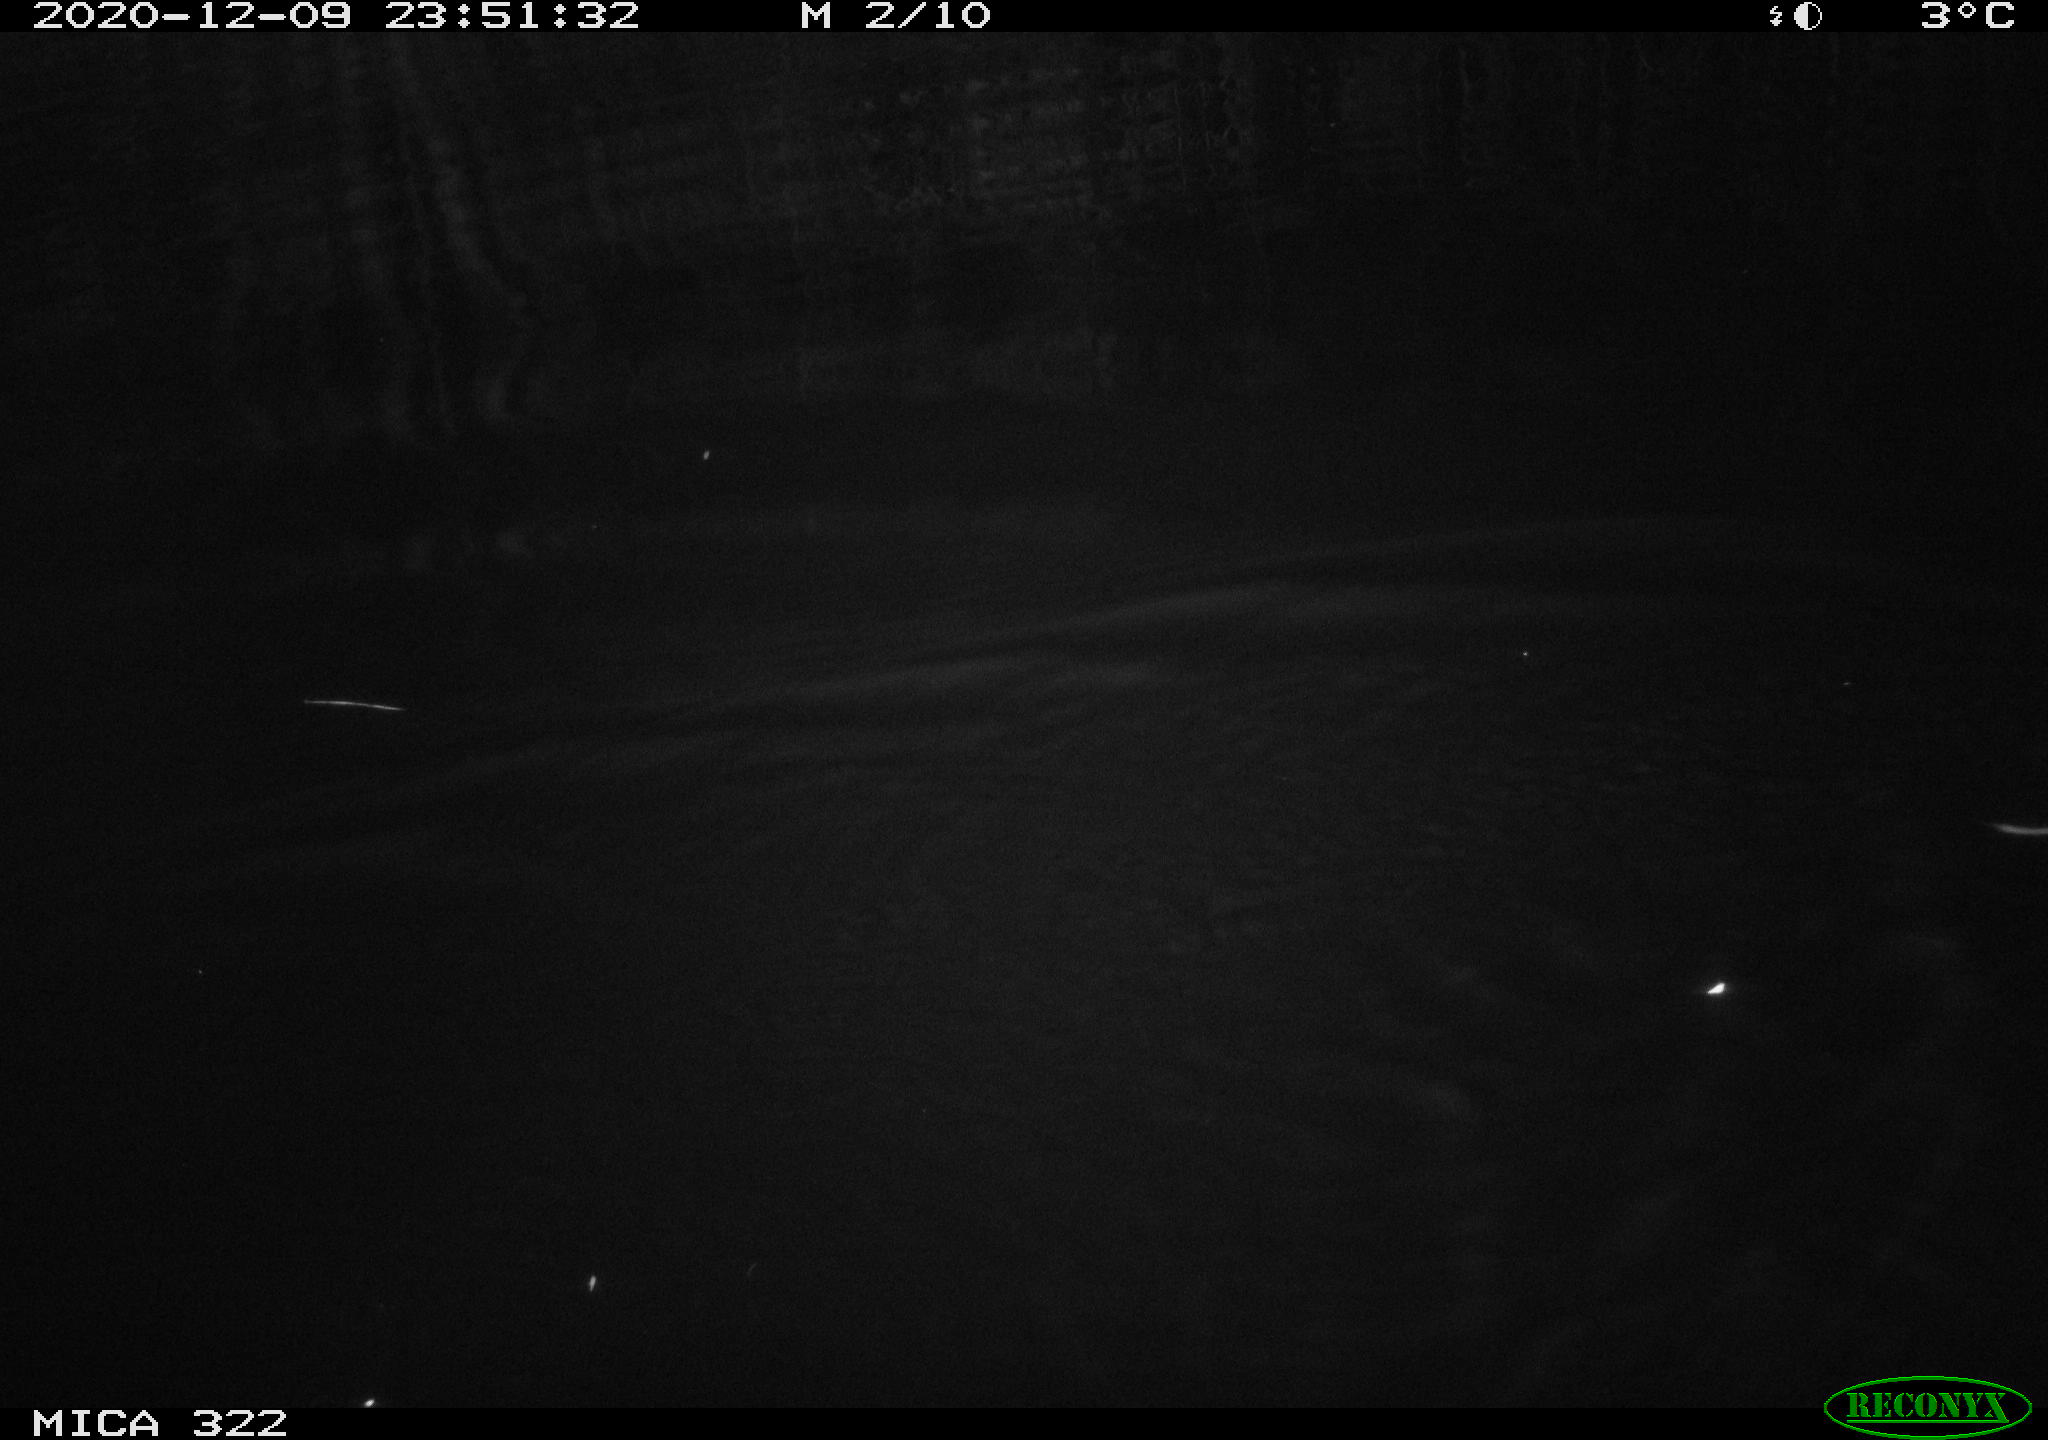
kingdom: Animalia
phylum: Chordata
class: Mammalia
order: Rodentia
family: Muridae
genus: Rattus
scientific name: Rattus norvegicus
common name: Brown rat
